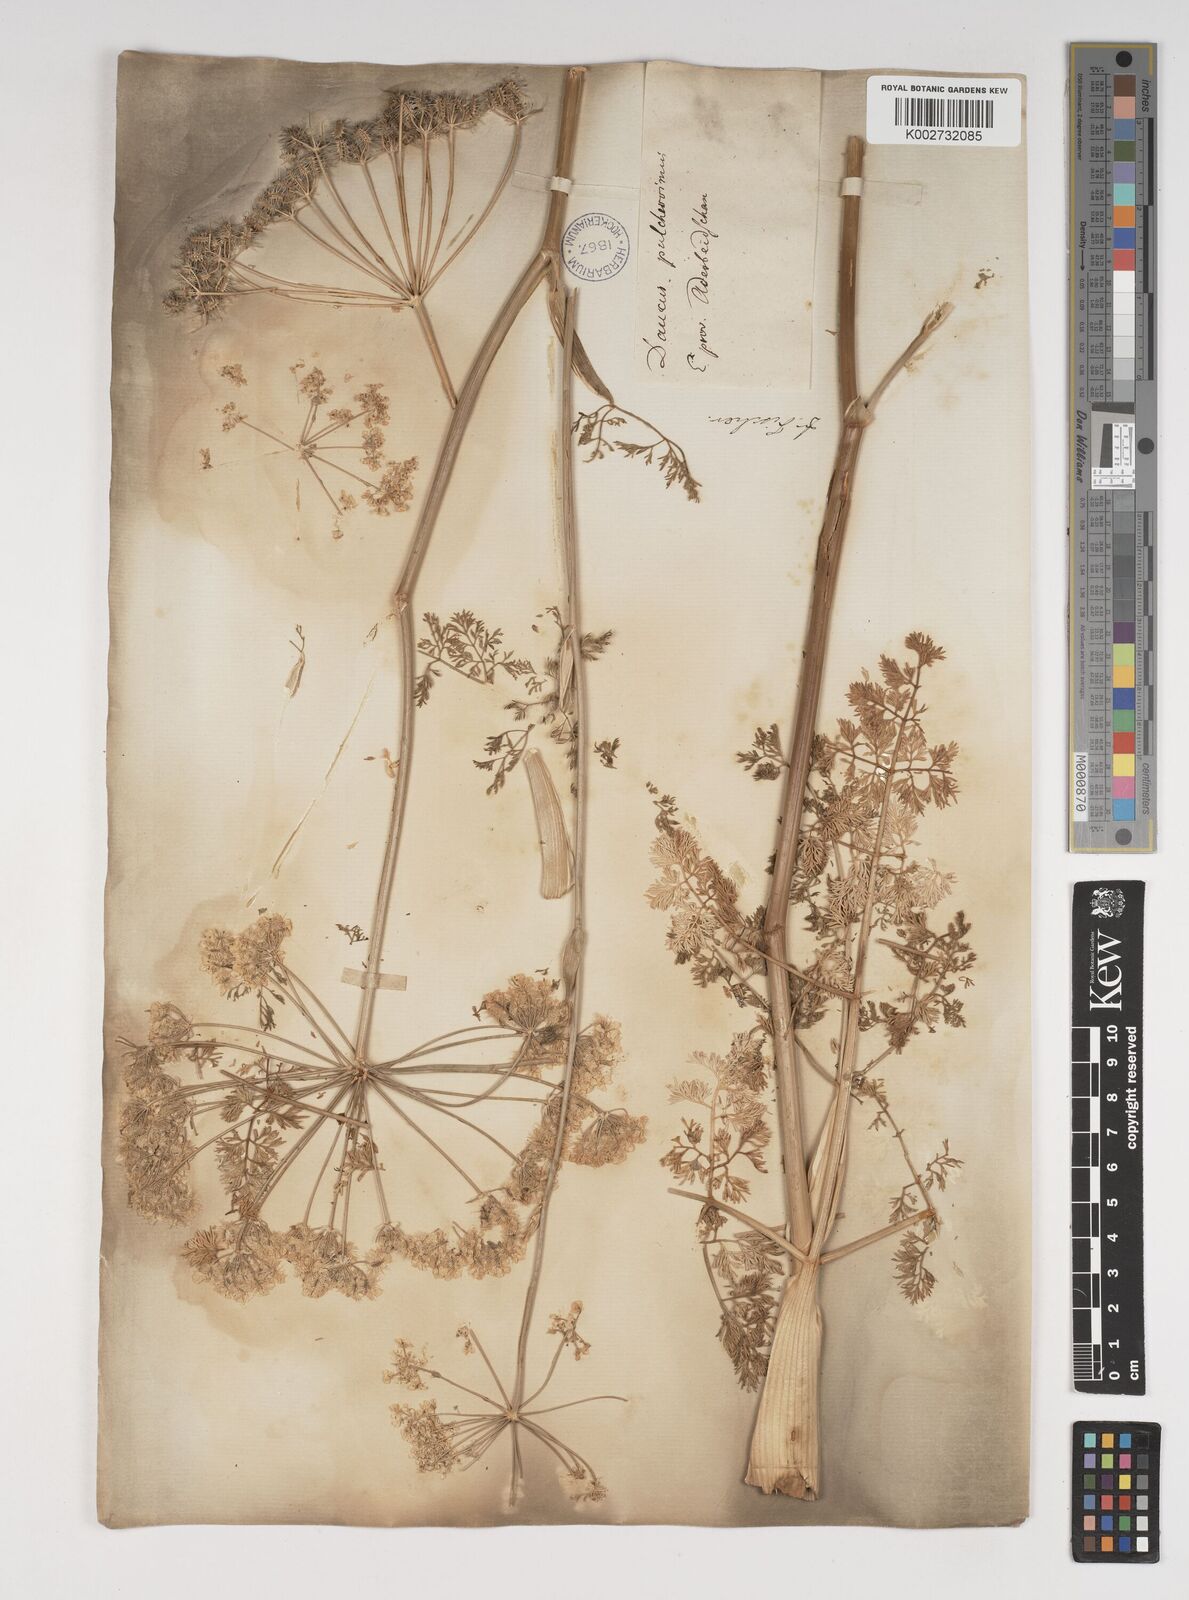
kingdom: Plantae
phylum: Tracheophyta
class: Magnoliopsida
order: Apiales
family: Apiaceae
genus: Astrodaucus
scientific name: Astrodaucus
